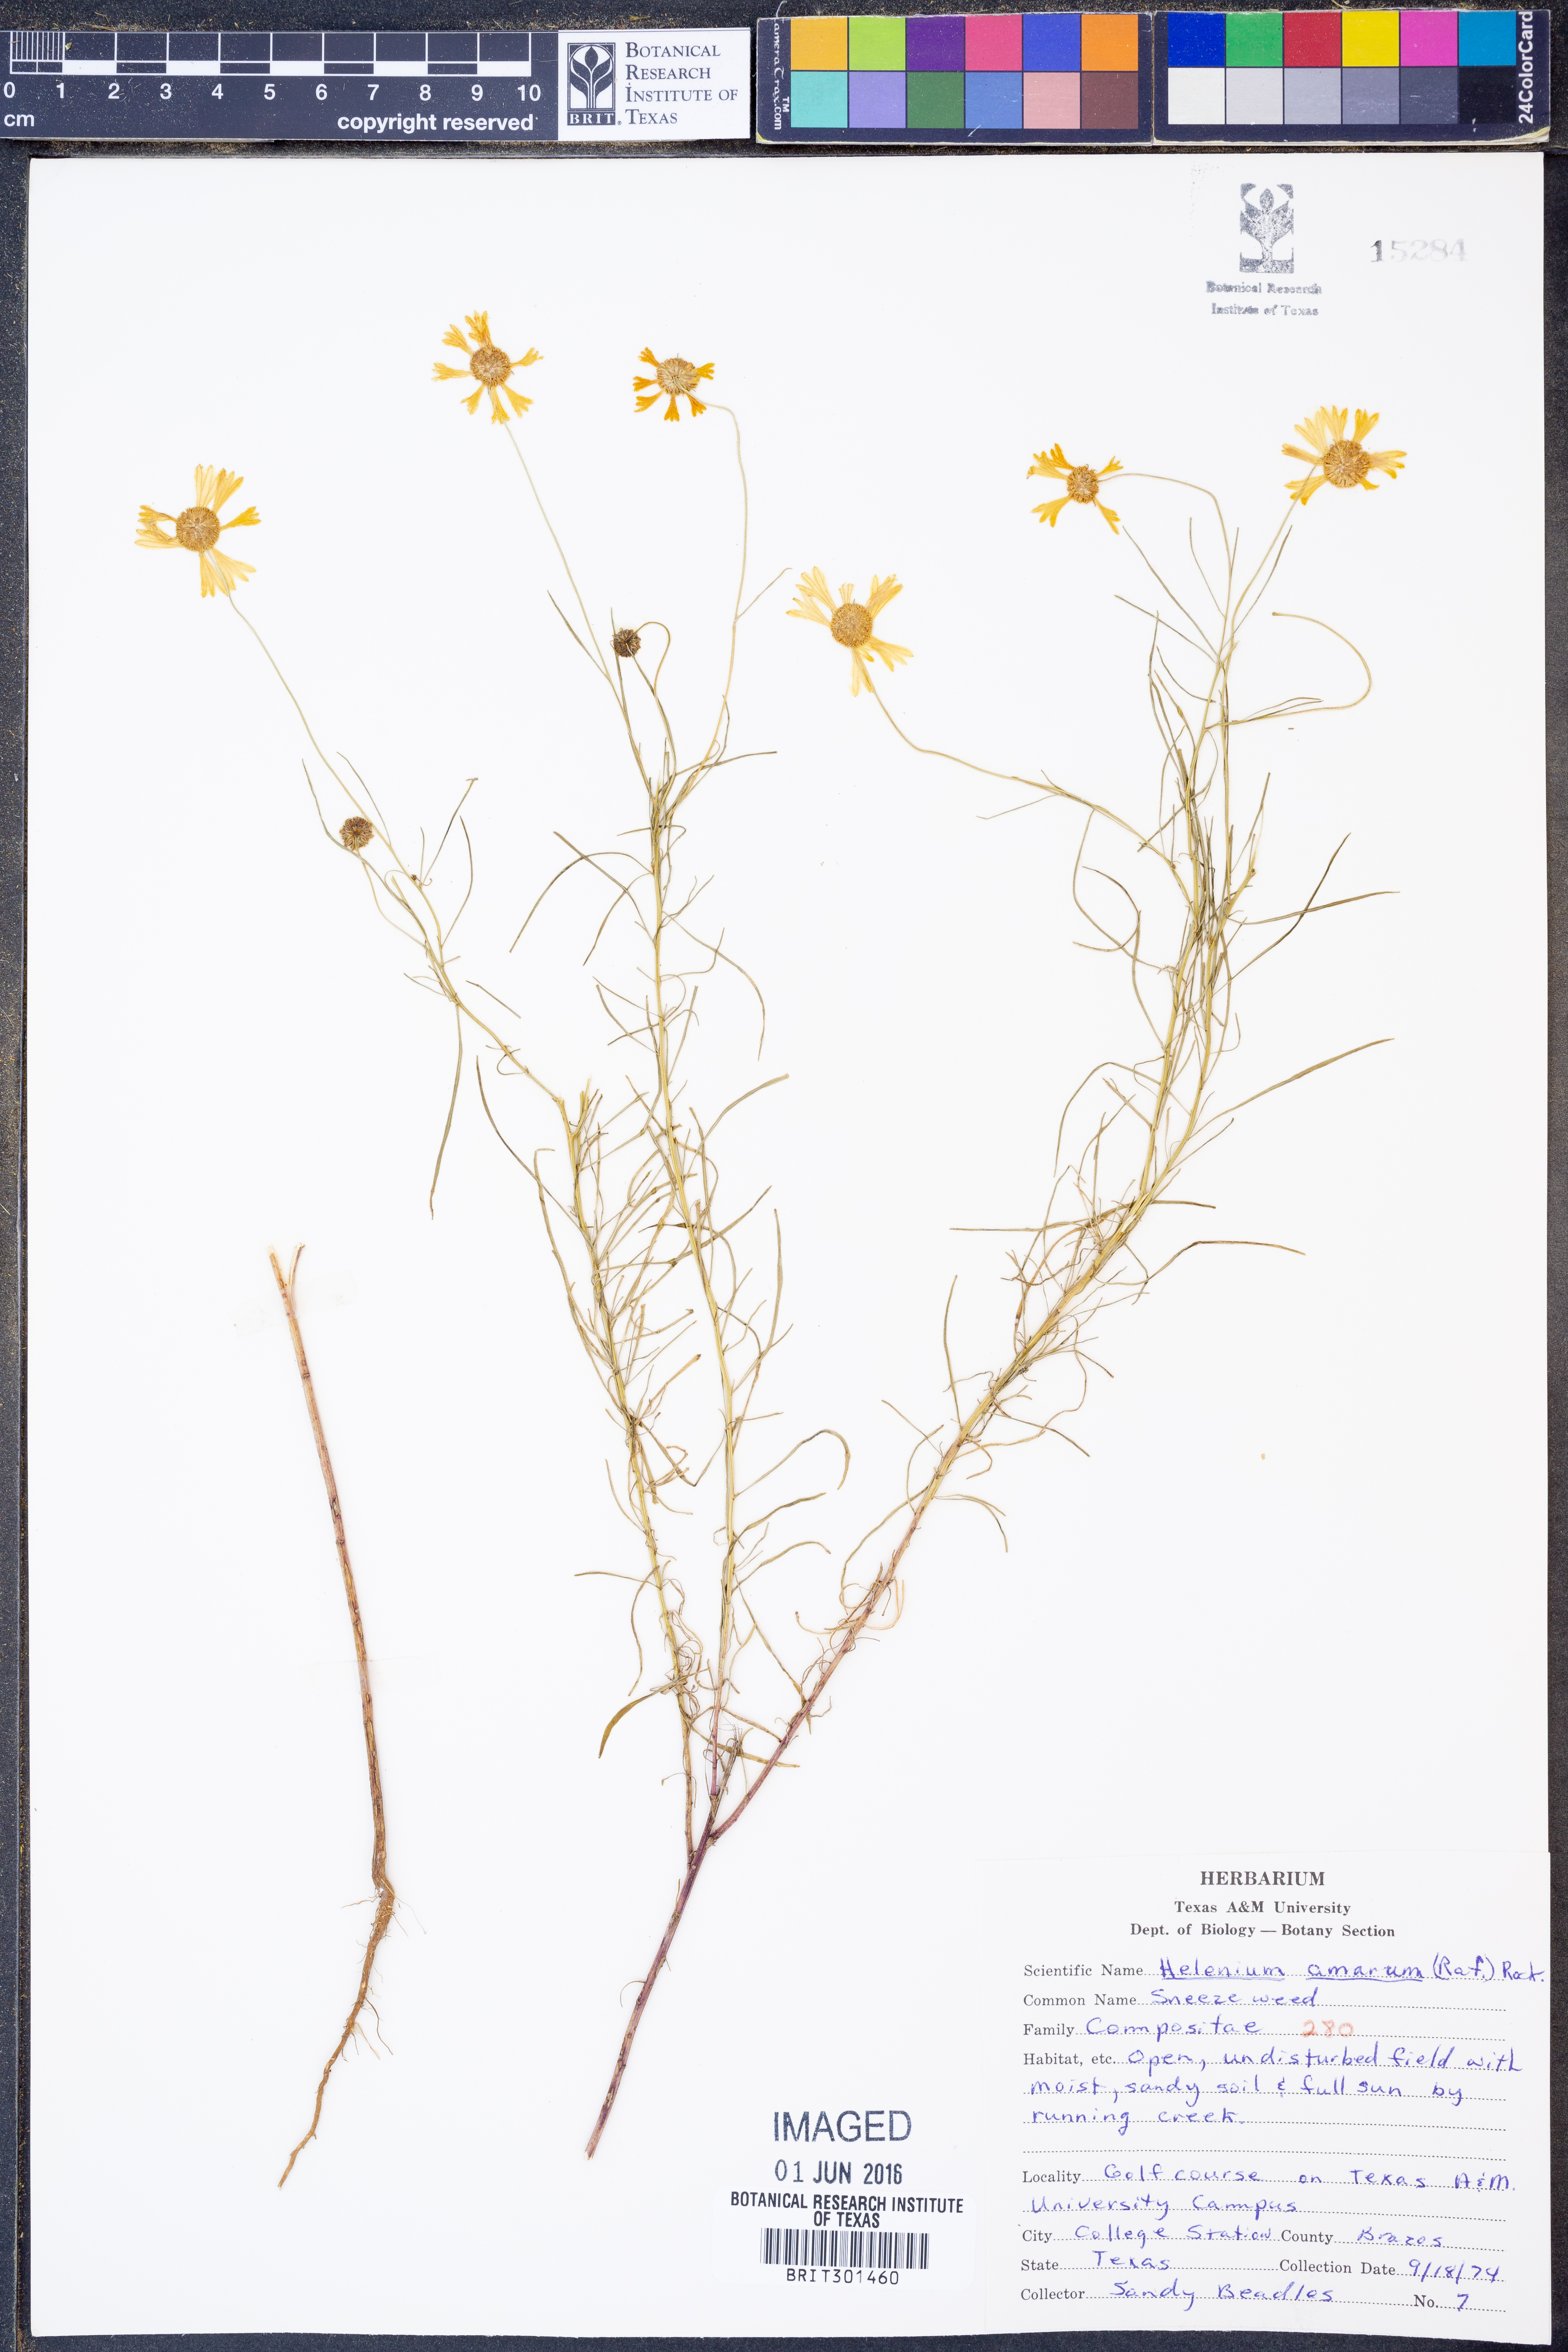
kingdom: Plantae
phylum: Tracheophyta
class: Magnoliopsida
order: Asterales
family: Asteraceae
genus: Helenium
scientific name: Helenium amarum
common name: Bitter sneezeweed
